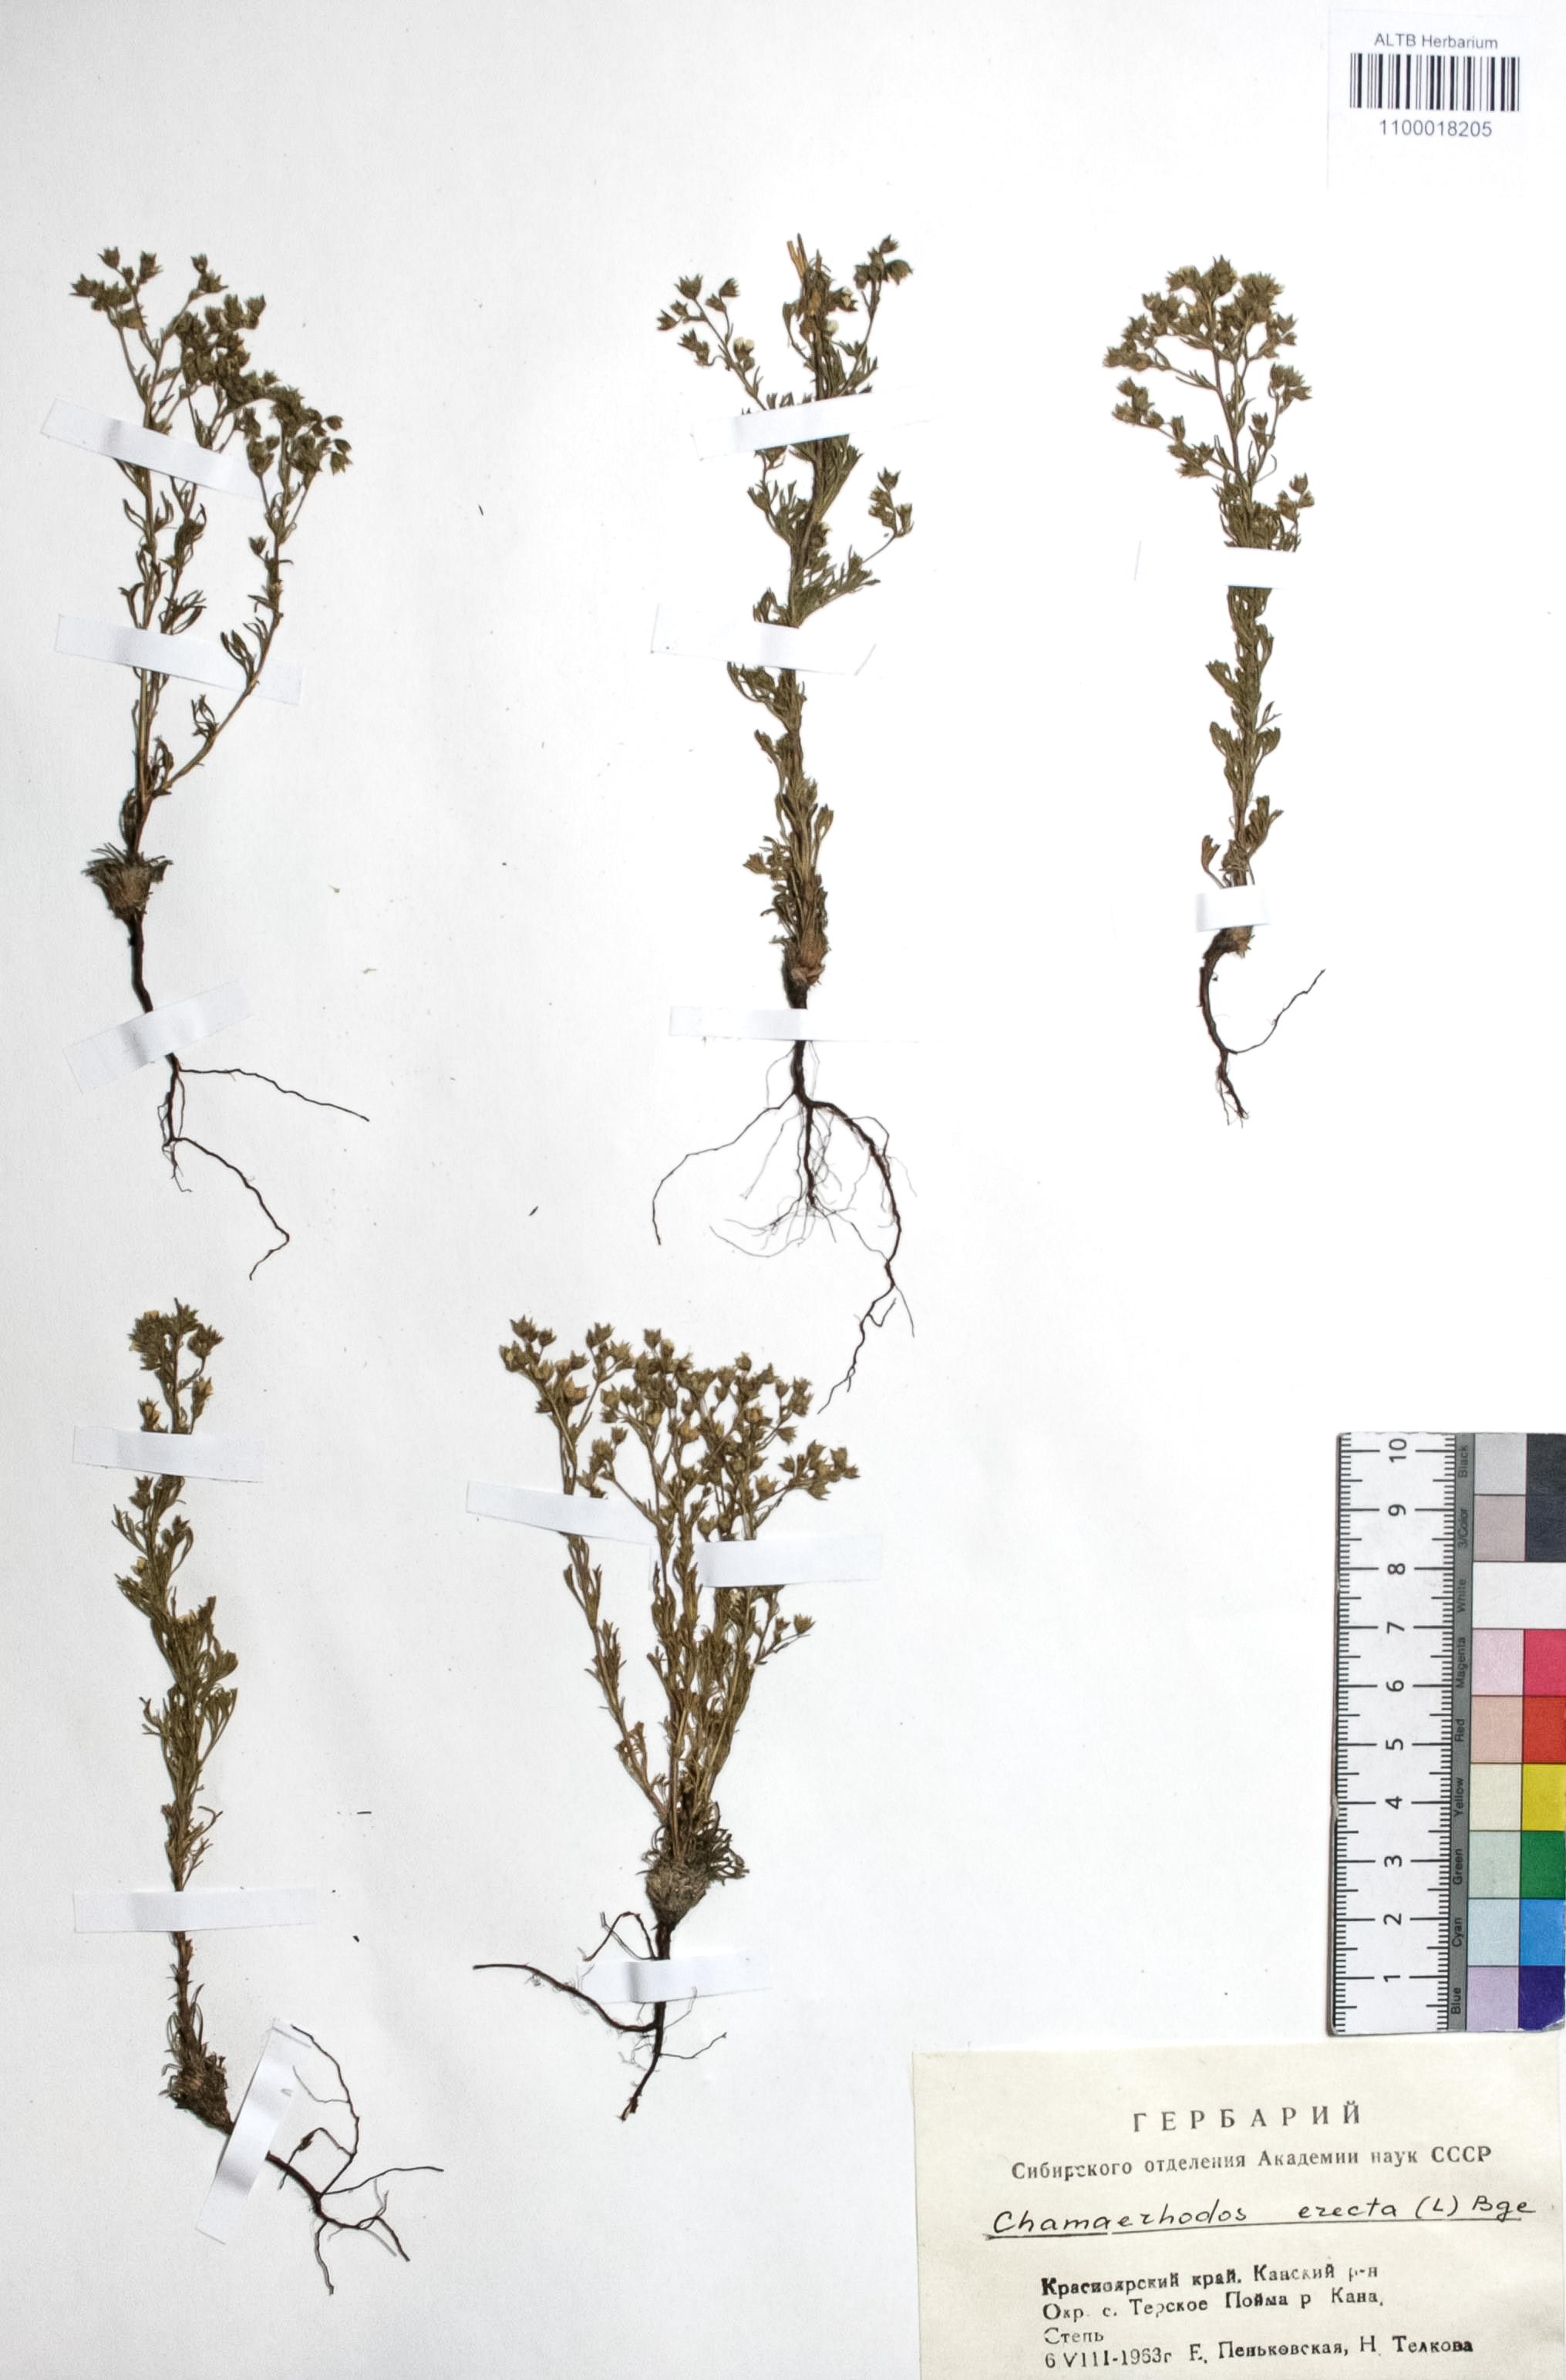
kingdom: Plantae
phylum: Tracheophyta
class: Magnoliopsida
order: Rosales
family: Rosaceae
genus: Chamaerhodos
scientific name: Chamaerhodos erecta
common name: American chamaerhodos
